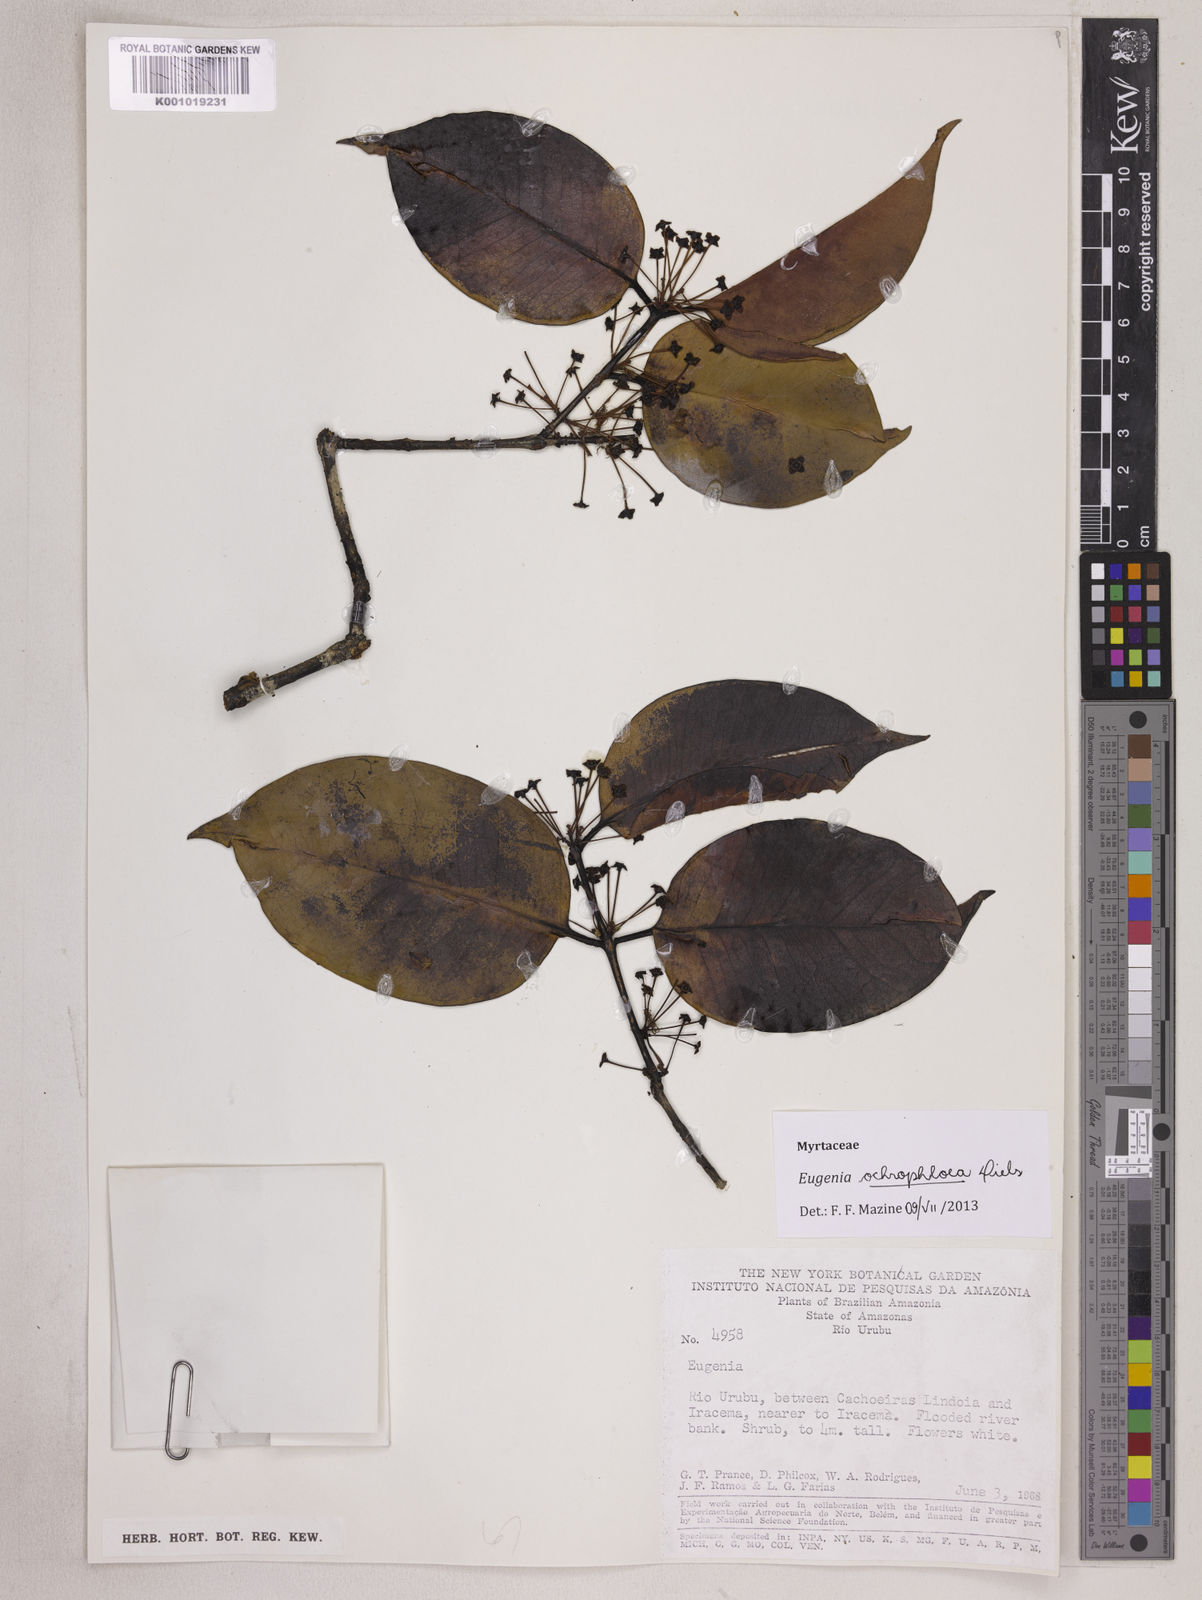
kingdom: Plantae
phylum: Tracheophyta
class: Magnoliopsida
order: Myrtales
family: Myrtaceae
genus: Eugenia
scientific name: Eugenia conduplicata
